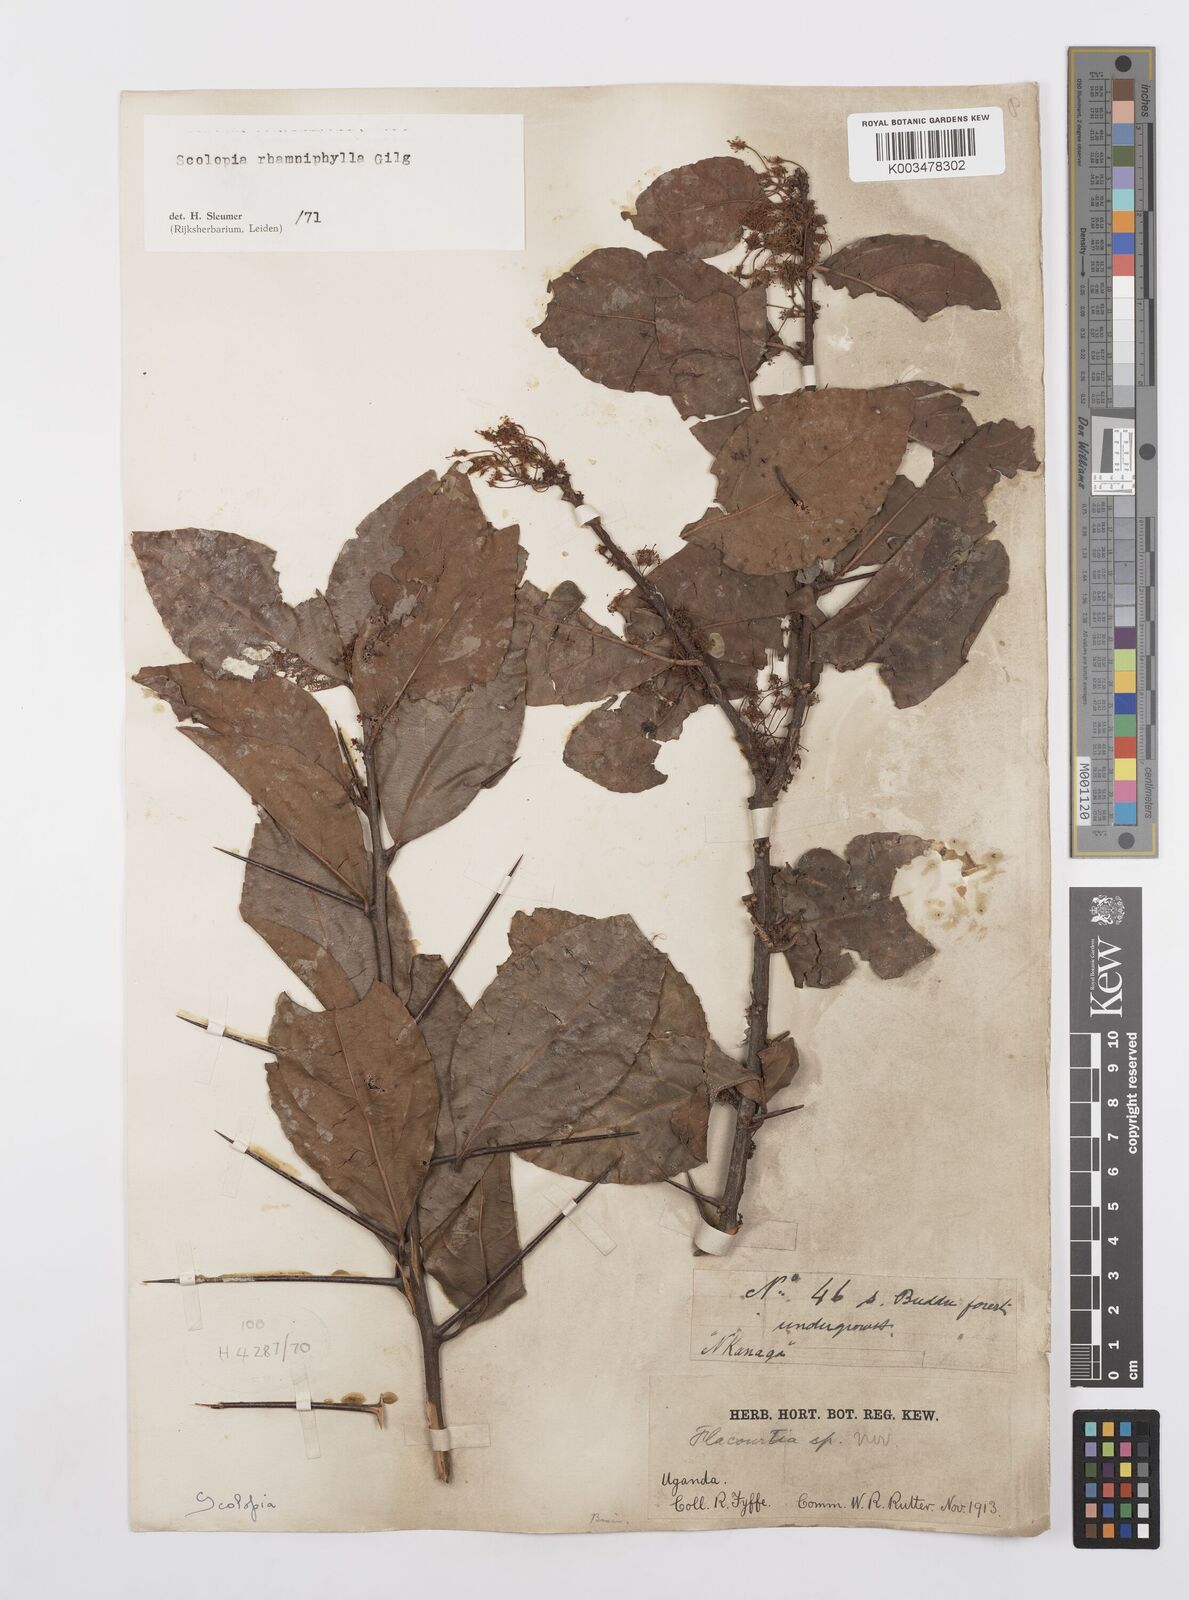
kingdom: Plantae
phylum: Tracheophyta
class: Magnoliopsida
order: Malpighiales
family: Salicaceae
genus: Scolopia
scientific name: Scolopia rhamniphylla
